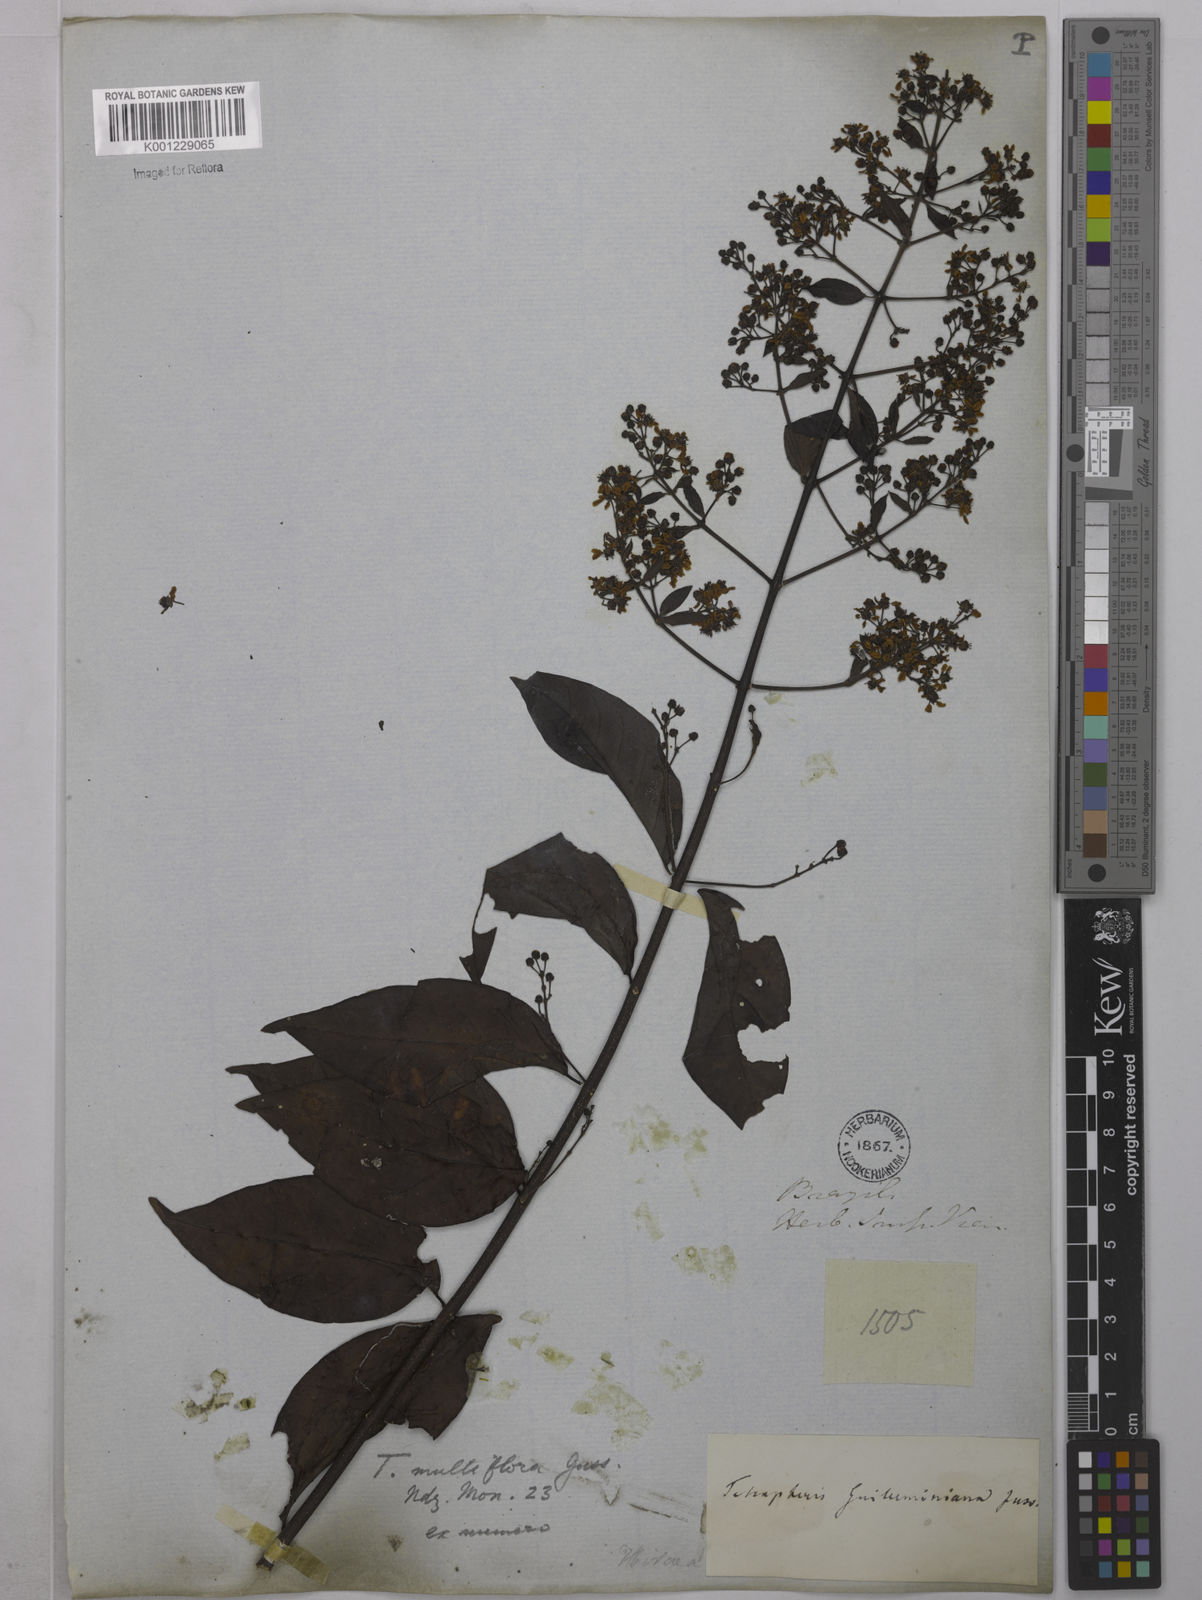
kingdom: Plantae
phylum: Tracheophyta
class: Magnoliopsida
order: Malpighiales
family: Malpighiaceae
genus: Niedenzuella
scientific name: Niedenzuella lucida
